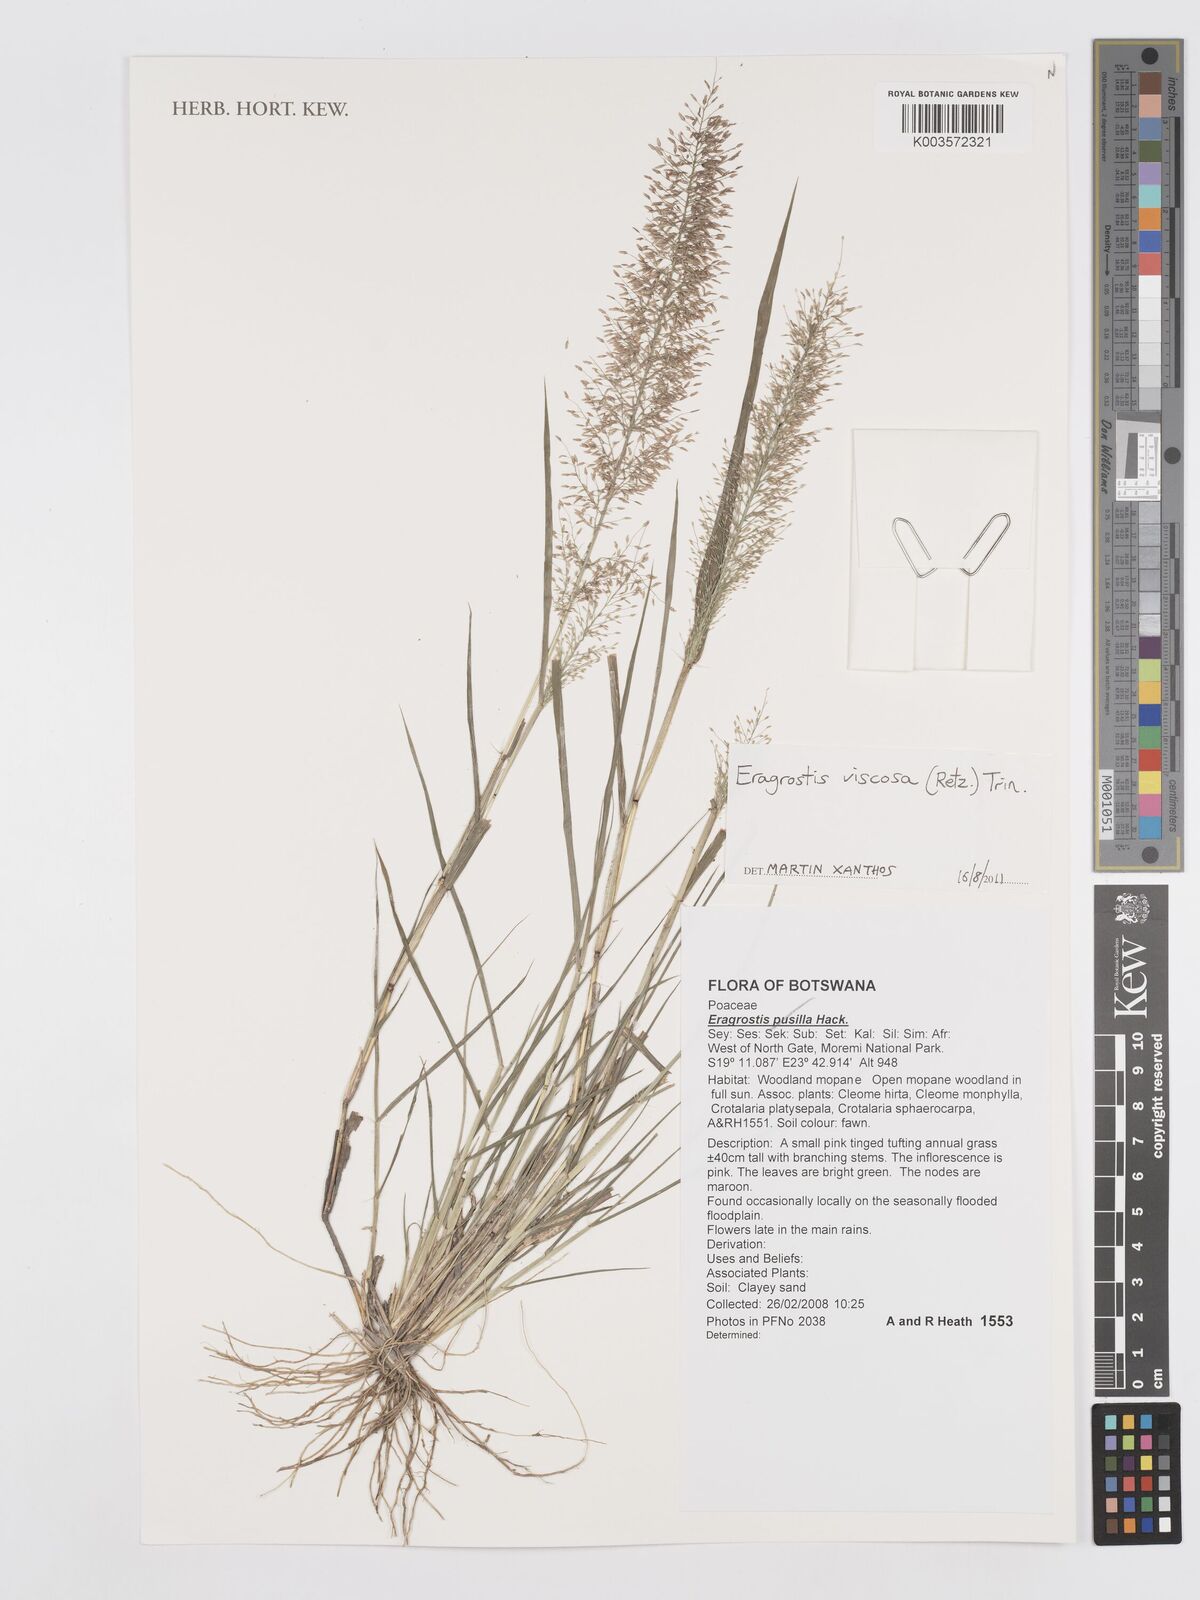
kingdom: Plantae
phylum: Tracheophyta
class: Liliopsida
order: Poales
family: Poaceae
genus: Eragrostis
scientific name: Eragrostis
